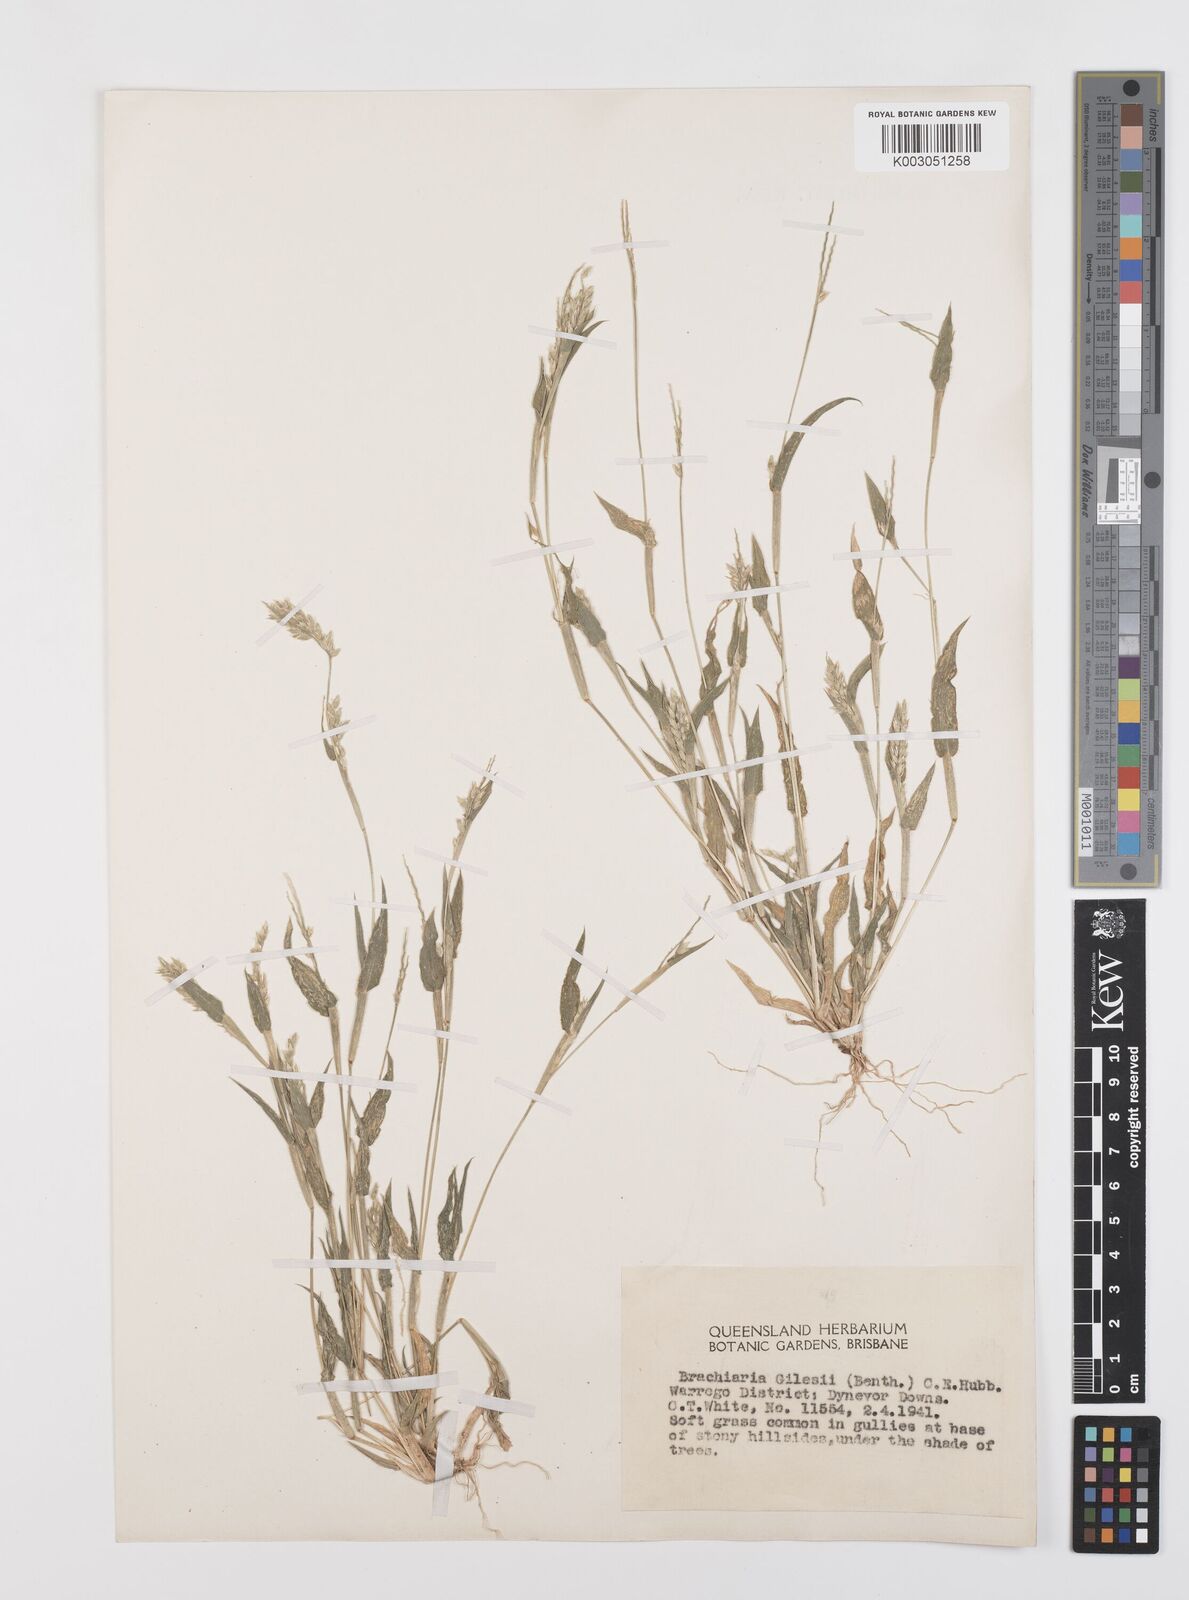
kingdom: Plantae
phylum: Tracheophyta
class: Liliopsida
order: Poales
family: Poaceae
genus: Urochloa
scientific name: Urochloa gilesii
